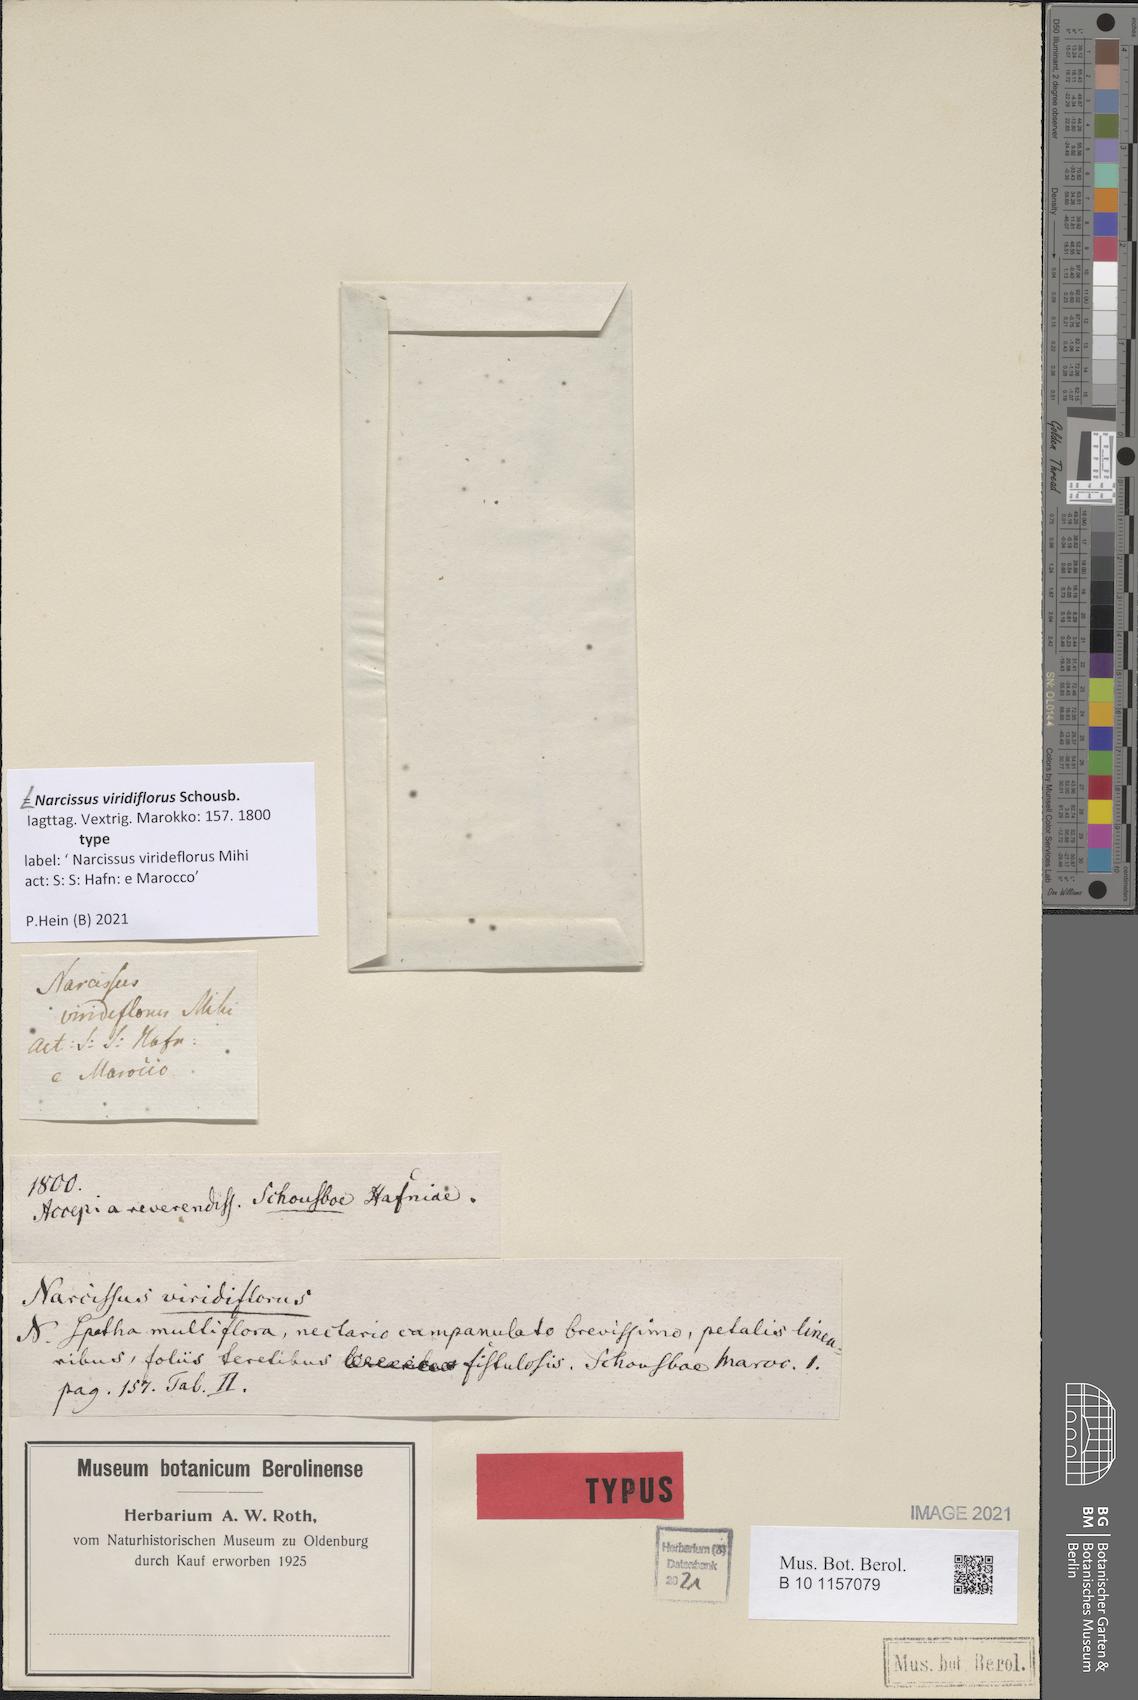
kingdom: Plantae
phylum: Tracheophyta
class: Liliopsida
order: Asparagales
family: Amaryllidaceae
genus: Narcissus
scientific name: Narcissus viridiflorus
